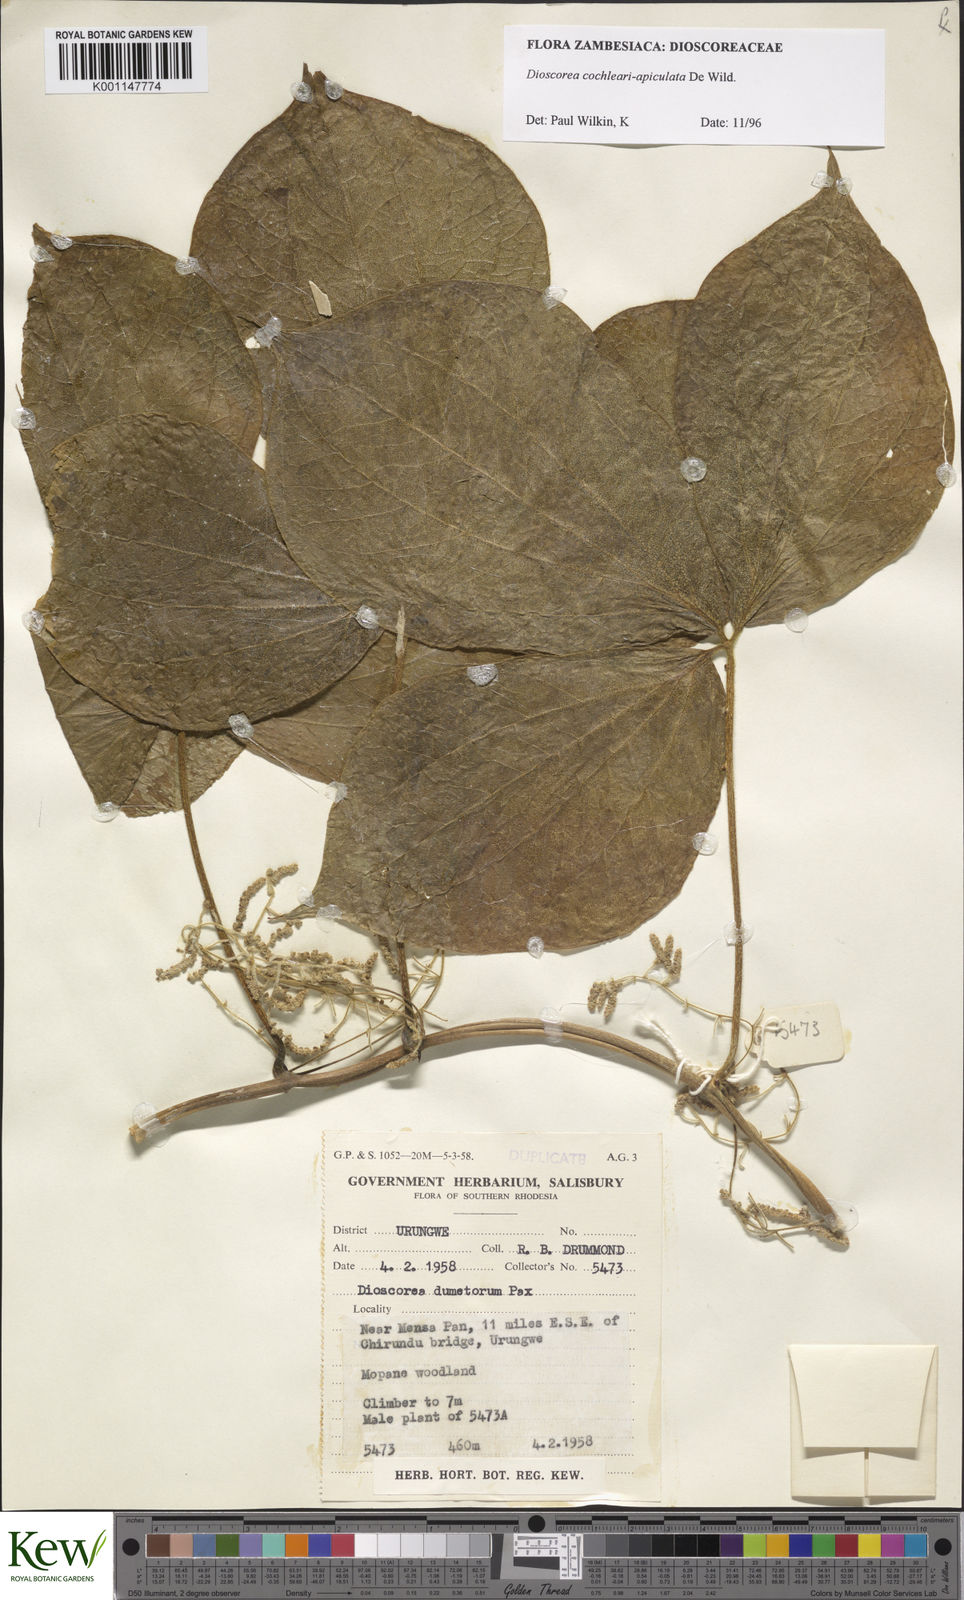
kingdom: Plantae
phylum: Tracheophyta
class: Liliopsida
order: Dioscoreales
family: Dioscoreaceae
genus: Dioscorea
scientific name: Dioscorea cochleariapiculata
